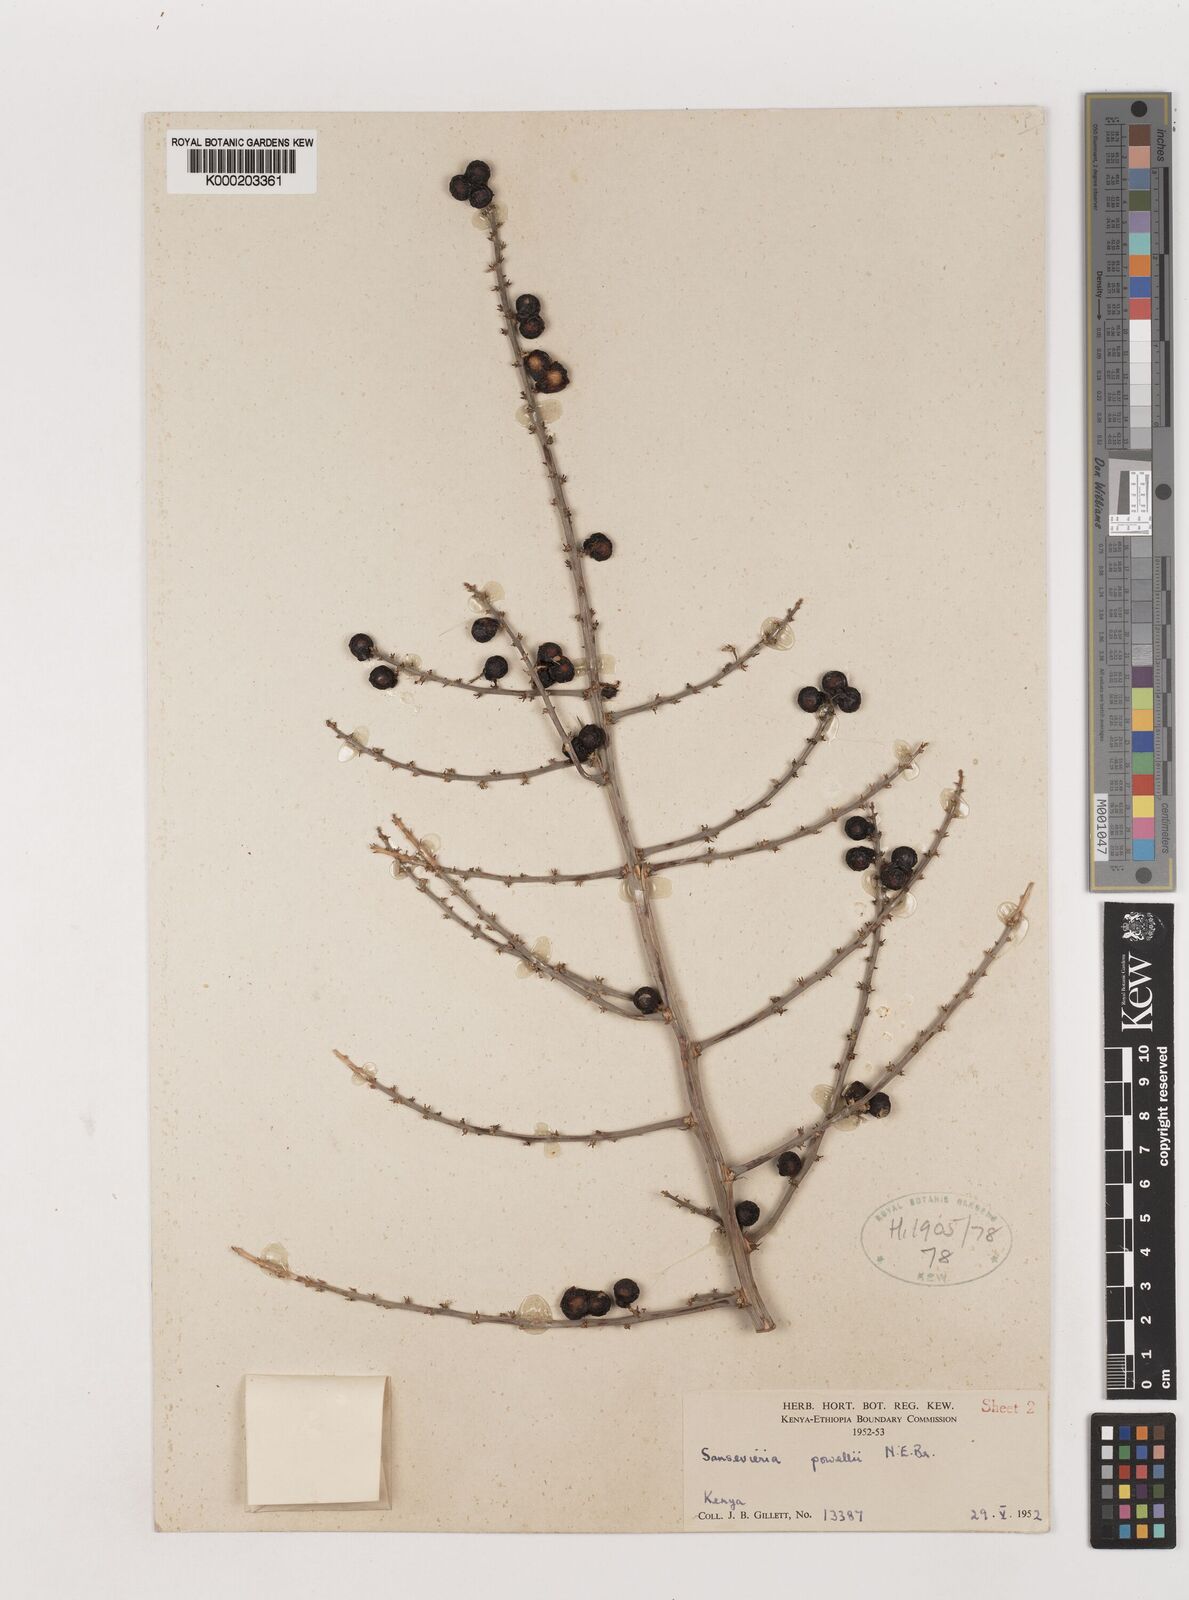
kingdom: Plantae
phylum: Tracheophyta
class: Liliopsida
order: Asparagales
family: Asparagaceae
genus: Dracaena
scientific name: Dracaena powellii
